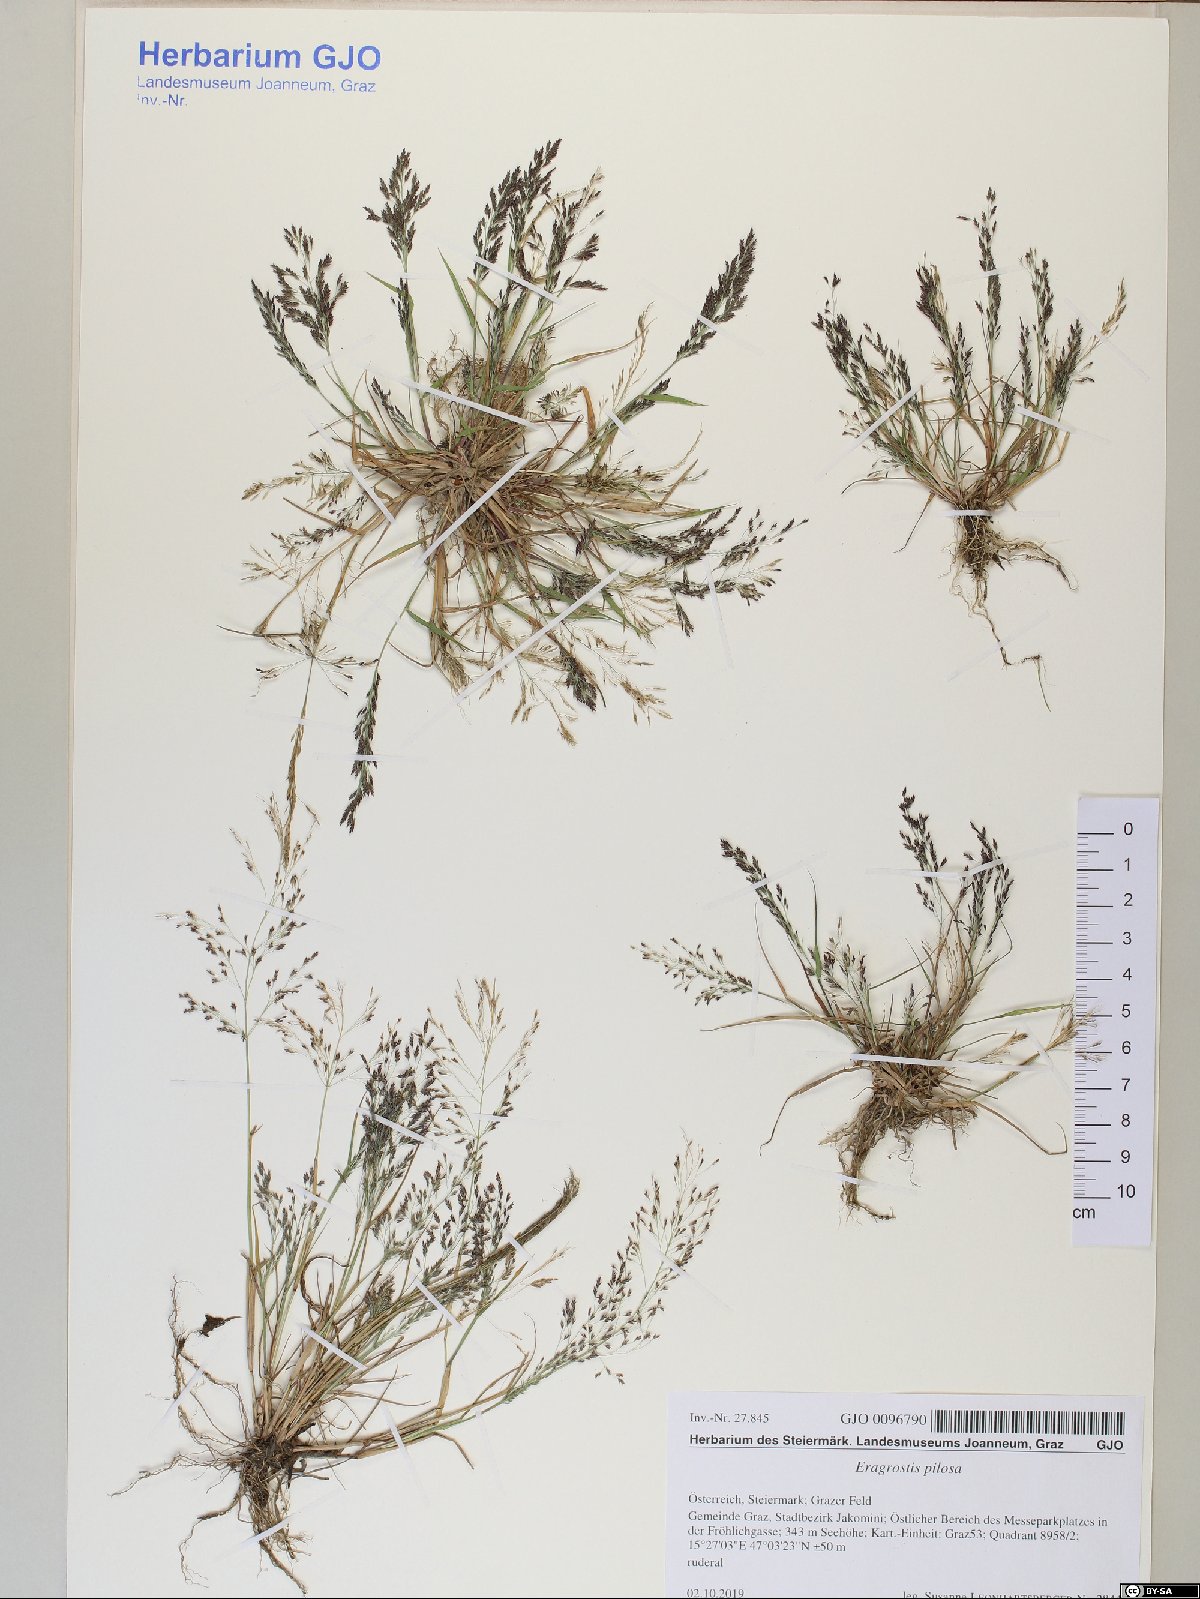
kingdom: Plantae
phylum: Tracheophyta
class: Liliopsida
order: Poales
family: Poaceae
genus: Eragrostis
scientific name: Eragrostis pilosa
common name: Indian lovegrass
